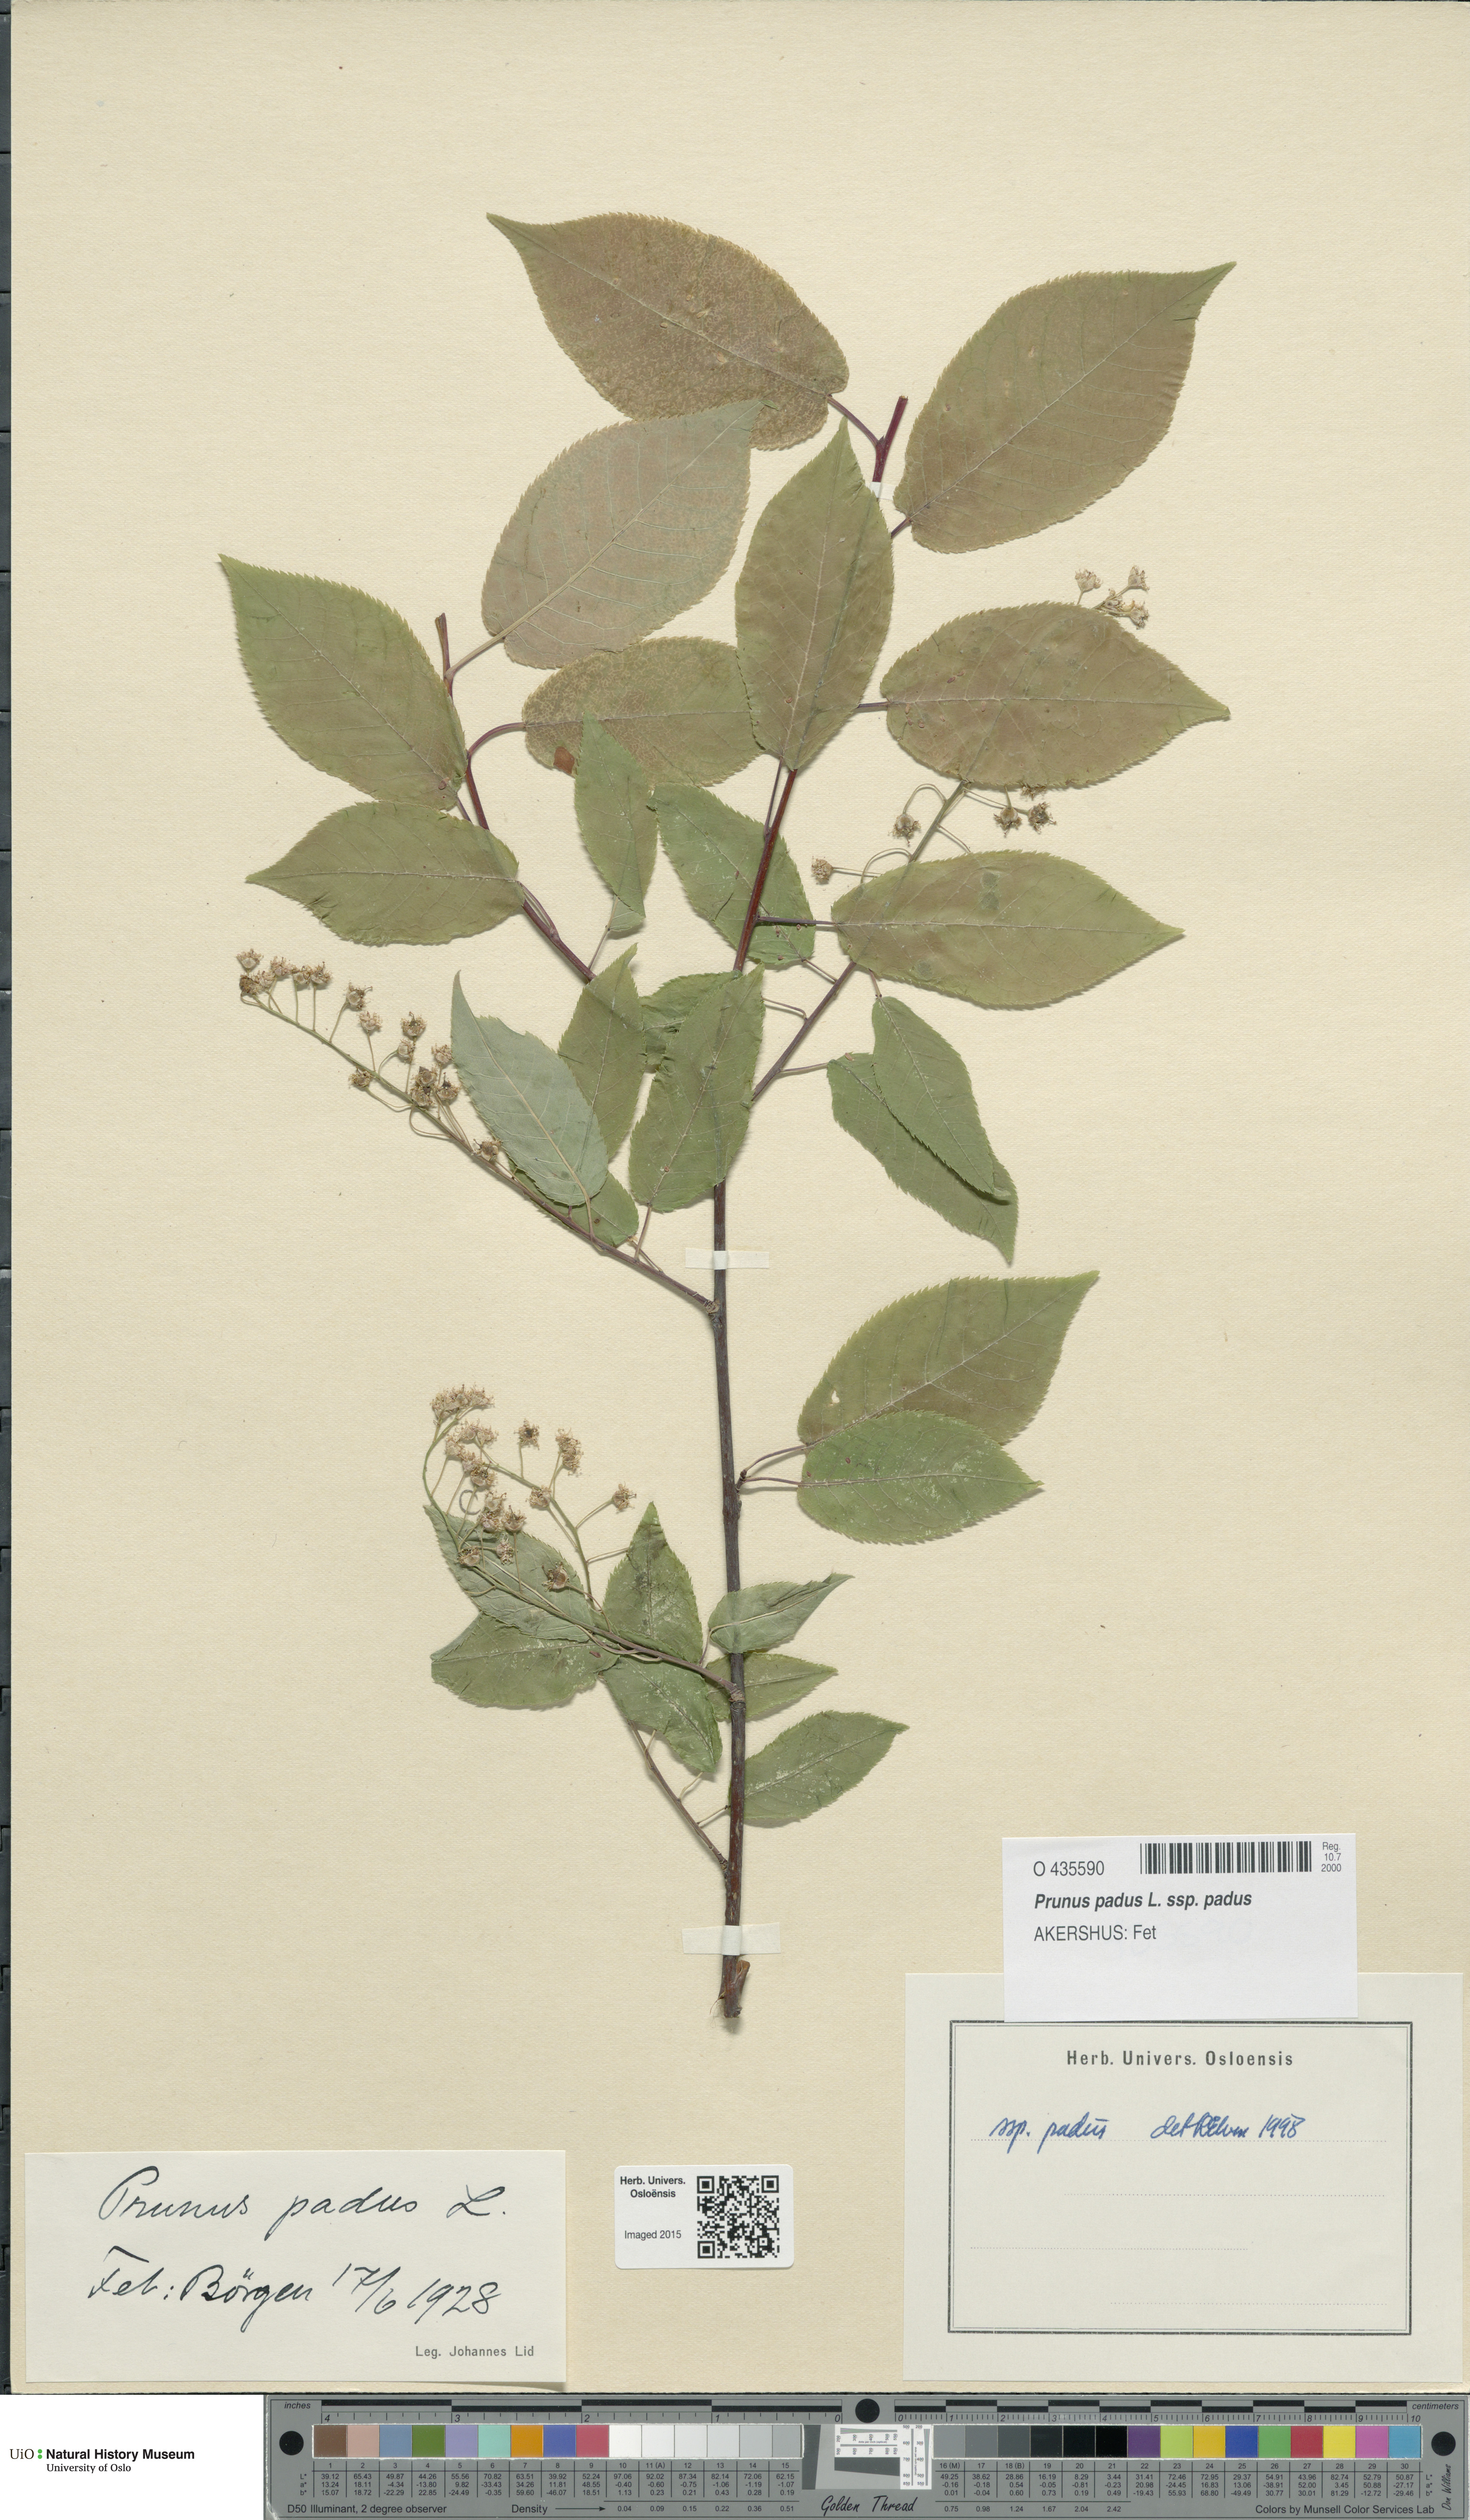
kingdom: Plantae
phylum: Tracheophyta
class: Magnoliopsida
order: Rosales
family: Rosaceae
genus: Prunus
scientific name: Prunus padus
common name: Bird cherry
